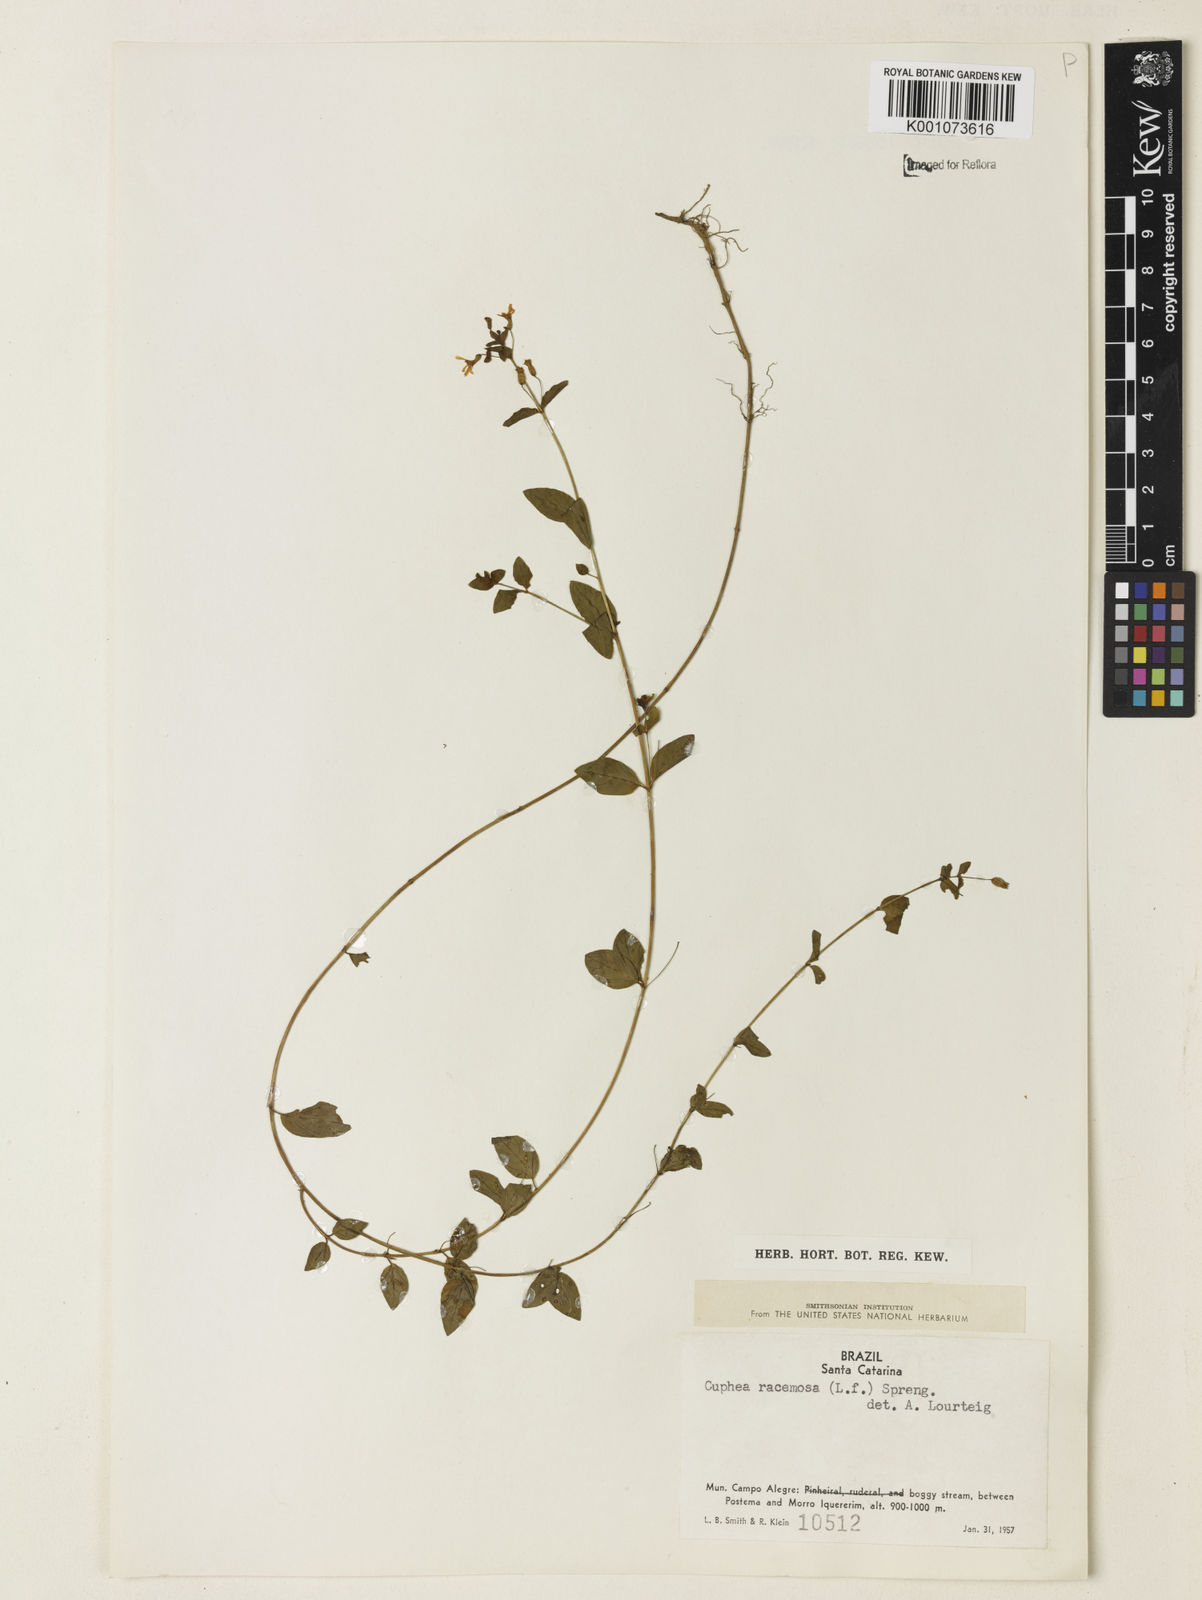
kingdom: Plantae
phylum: Tracheophyta
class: Magnoliopsida
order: Myrtales
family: Lythraceae
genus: Cuphea
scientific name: Cuphea racemosa
